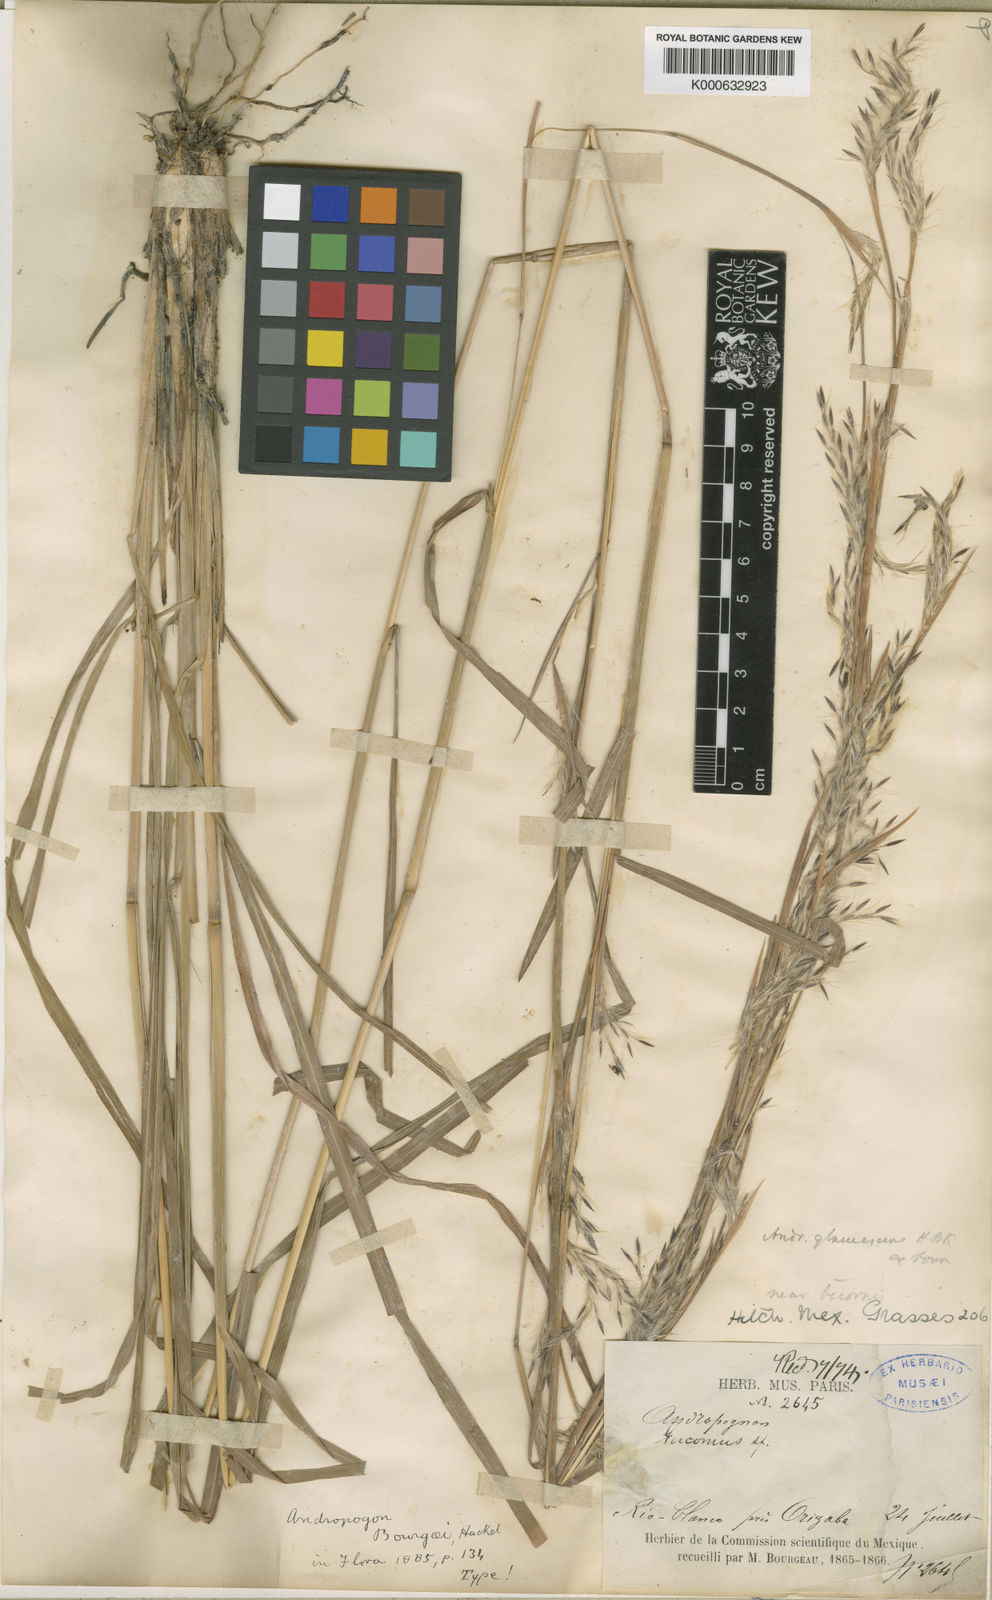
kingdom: Plantae
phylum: Tracheophyta
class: Liliopsida
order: Poales
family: Poaceae
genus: Andropogon
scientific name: Andropogon
